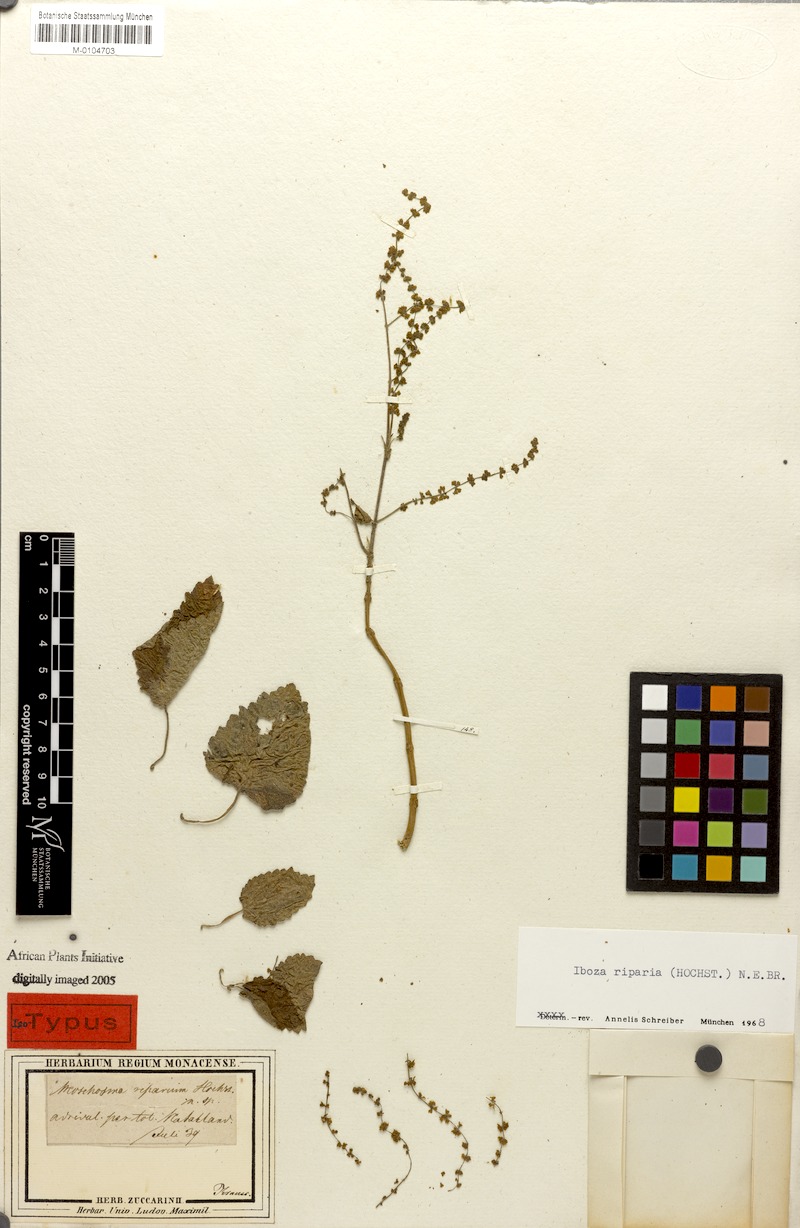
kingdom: Plantae
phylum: Tracheophyta
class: Magnoliopsida
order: Lamiales
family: Lamiaceae
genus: Tetradenia
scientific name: Tetradenia riparia
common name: Gingerbush
